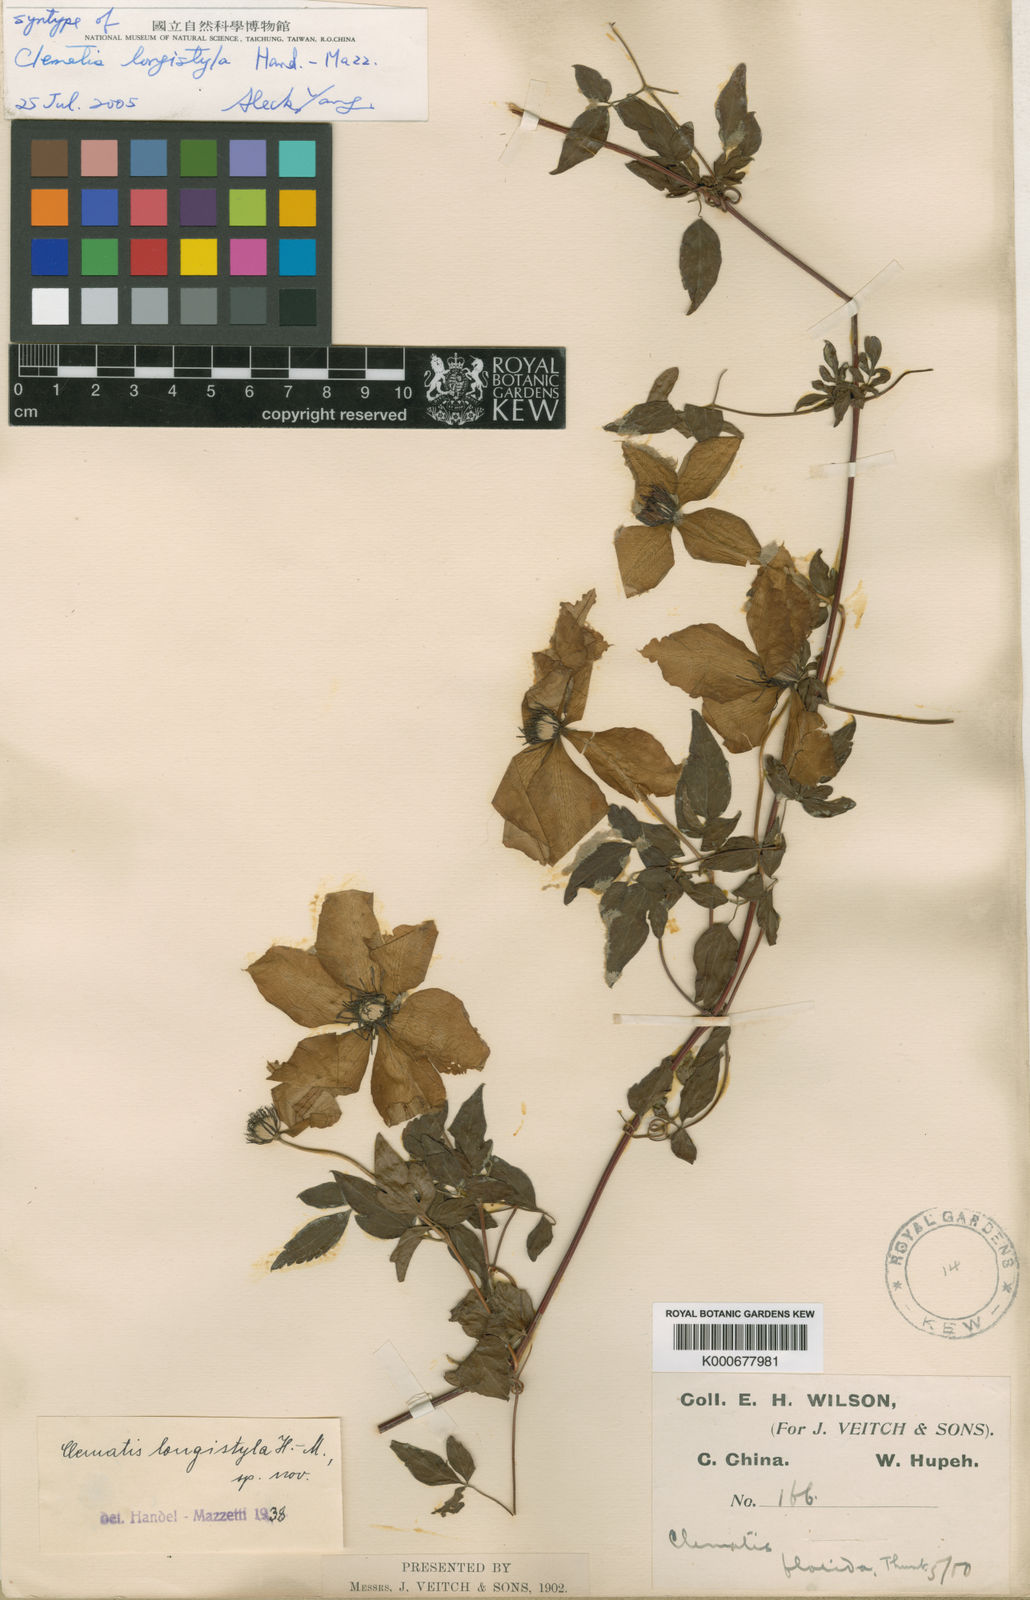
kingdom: Plantae
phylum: Tracheophyta
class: Magnoliopsida
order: Ranunculales
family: Ranunculaceae
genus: Clematis
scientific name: Clematis longistyla
